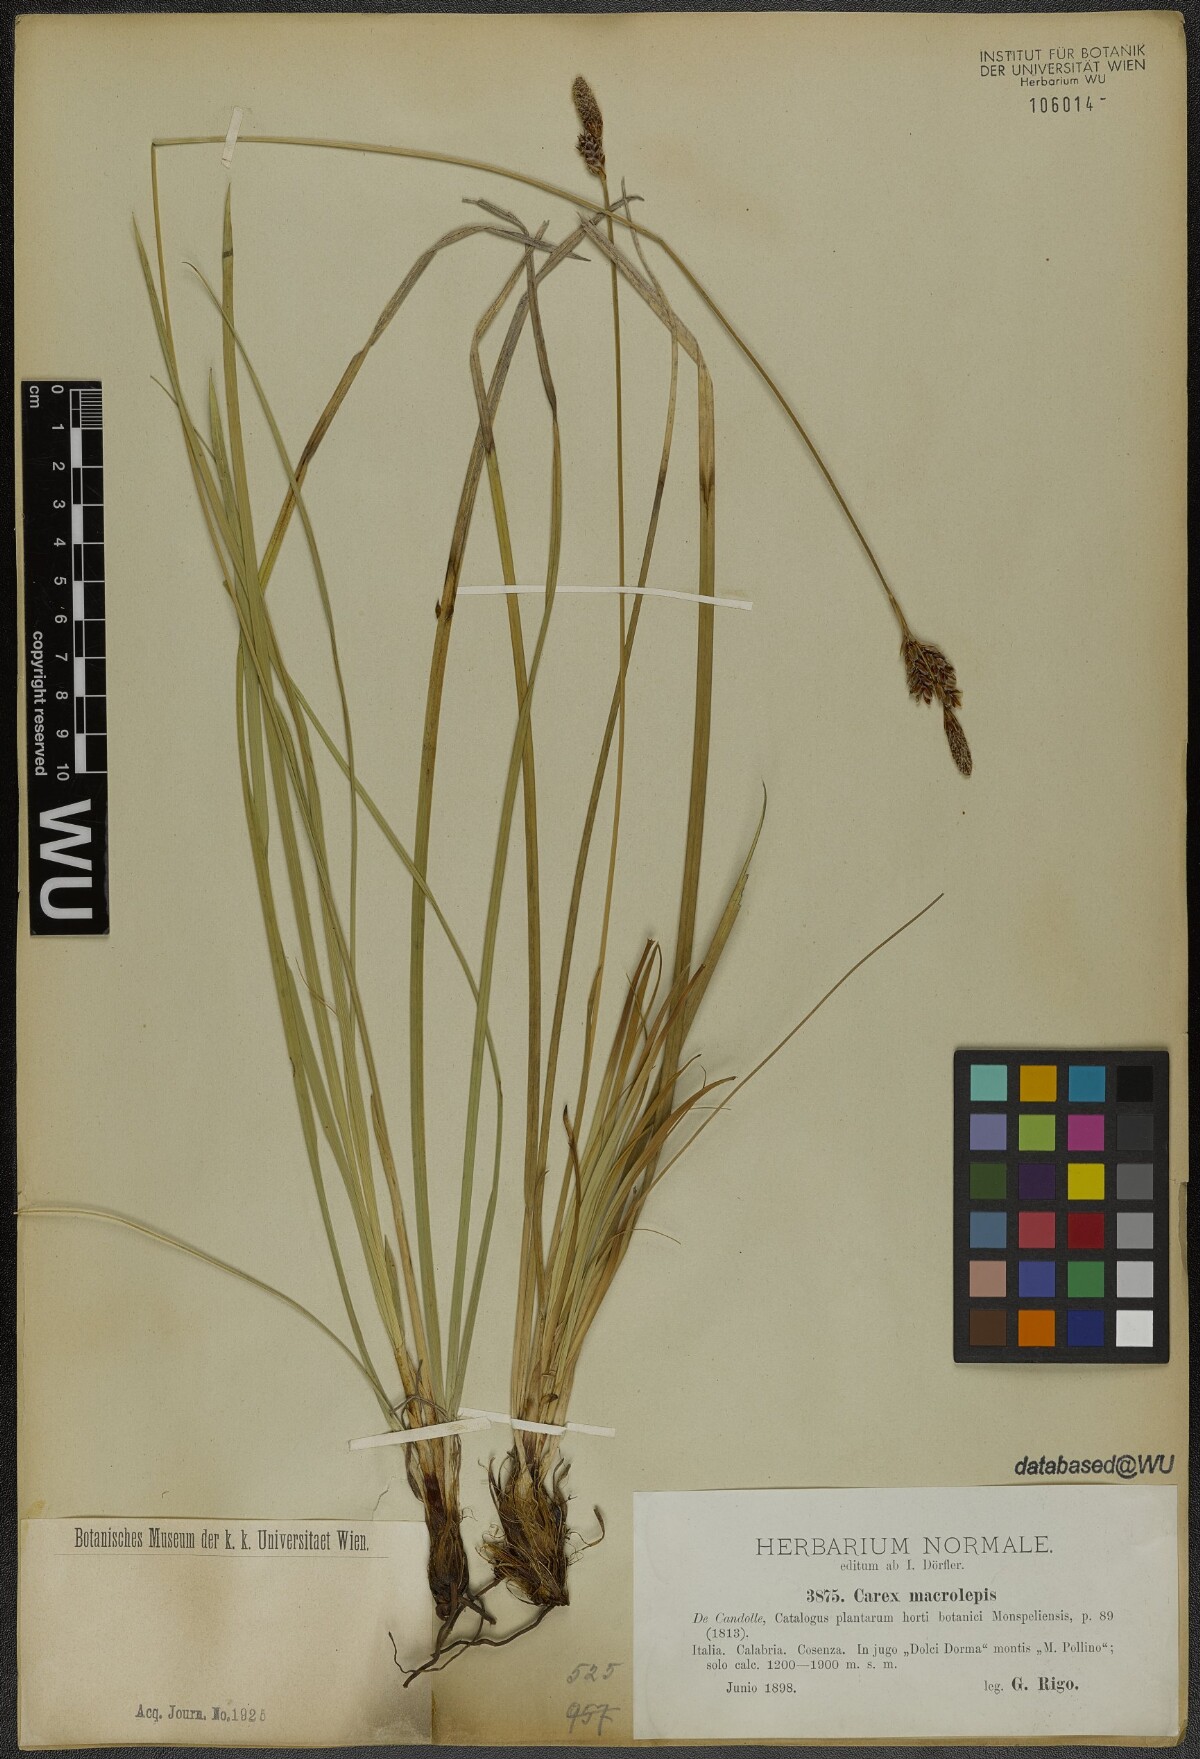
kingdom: Plantae
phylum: Tracheophyta
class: Liliopsida
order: Poales
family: Cyperaceae
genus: Carex
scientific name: Carex macrolepis
